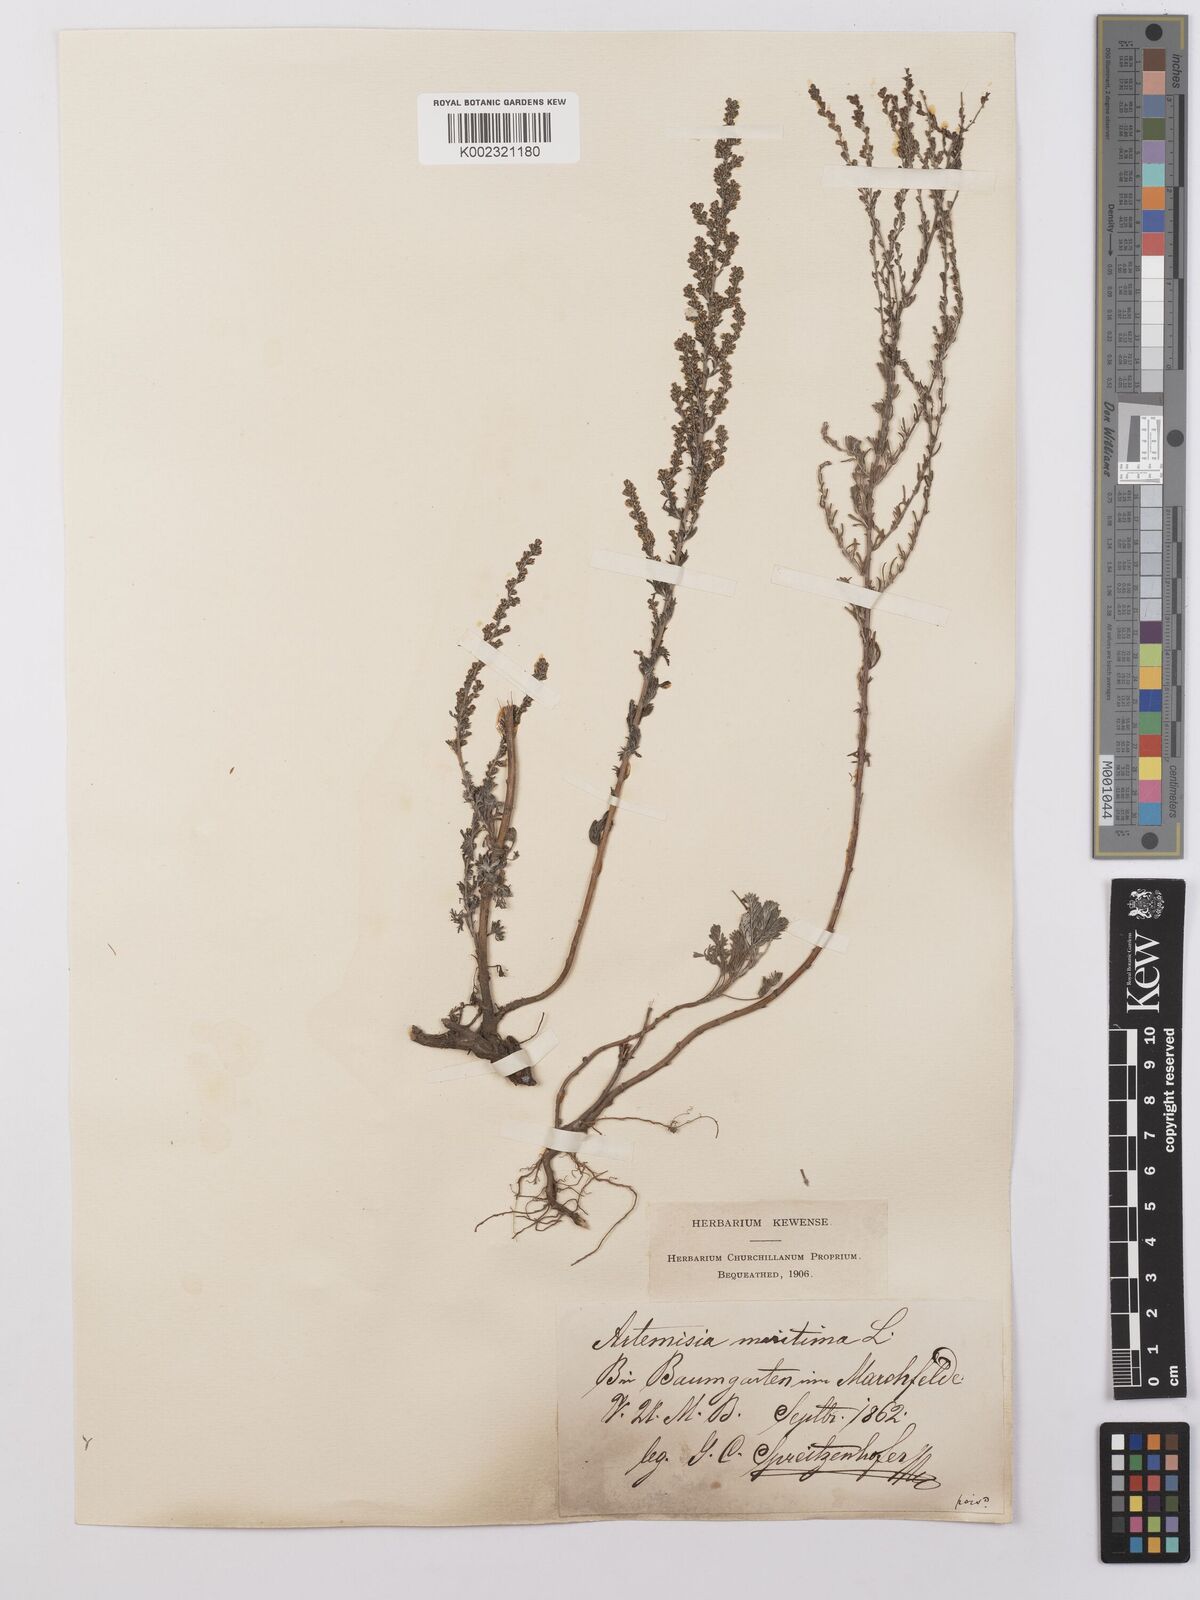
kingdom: Plantae
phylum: Tracheophyta
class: Magnoliopsida
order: Asterales
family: Asteraceae
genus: Artemisia
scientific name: Artemisia maritima
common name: Wormseed
